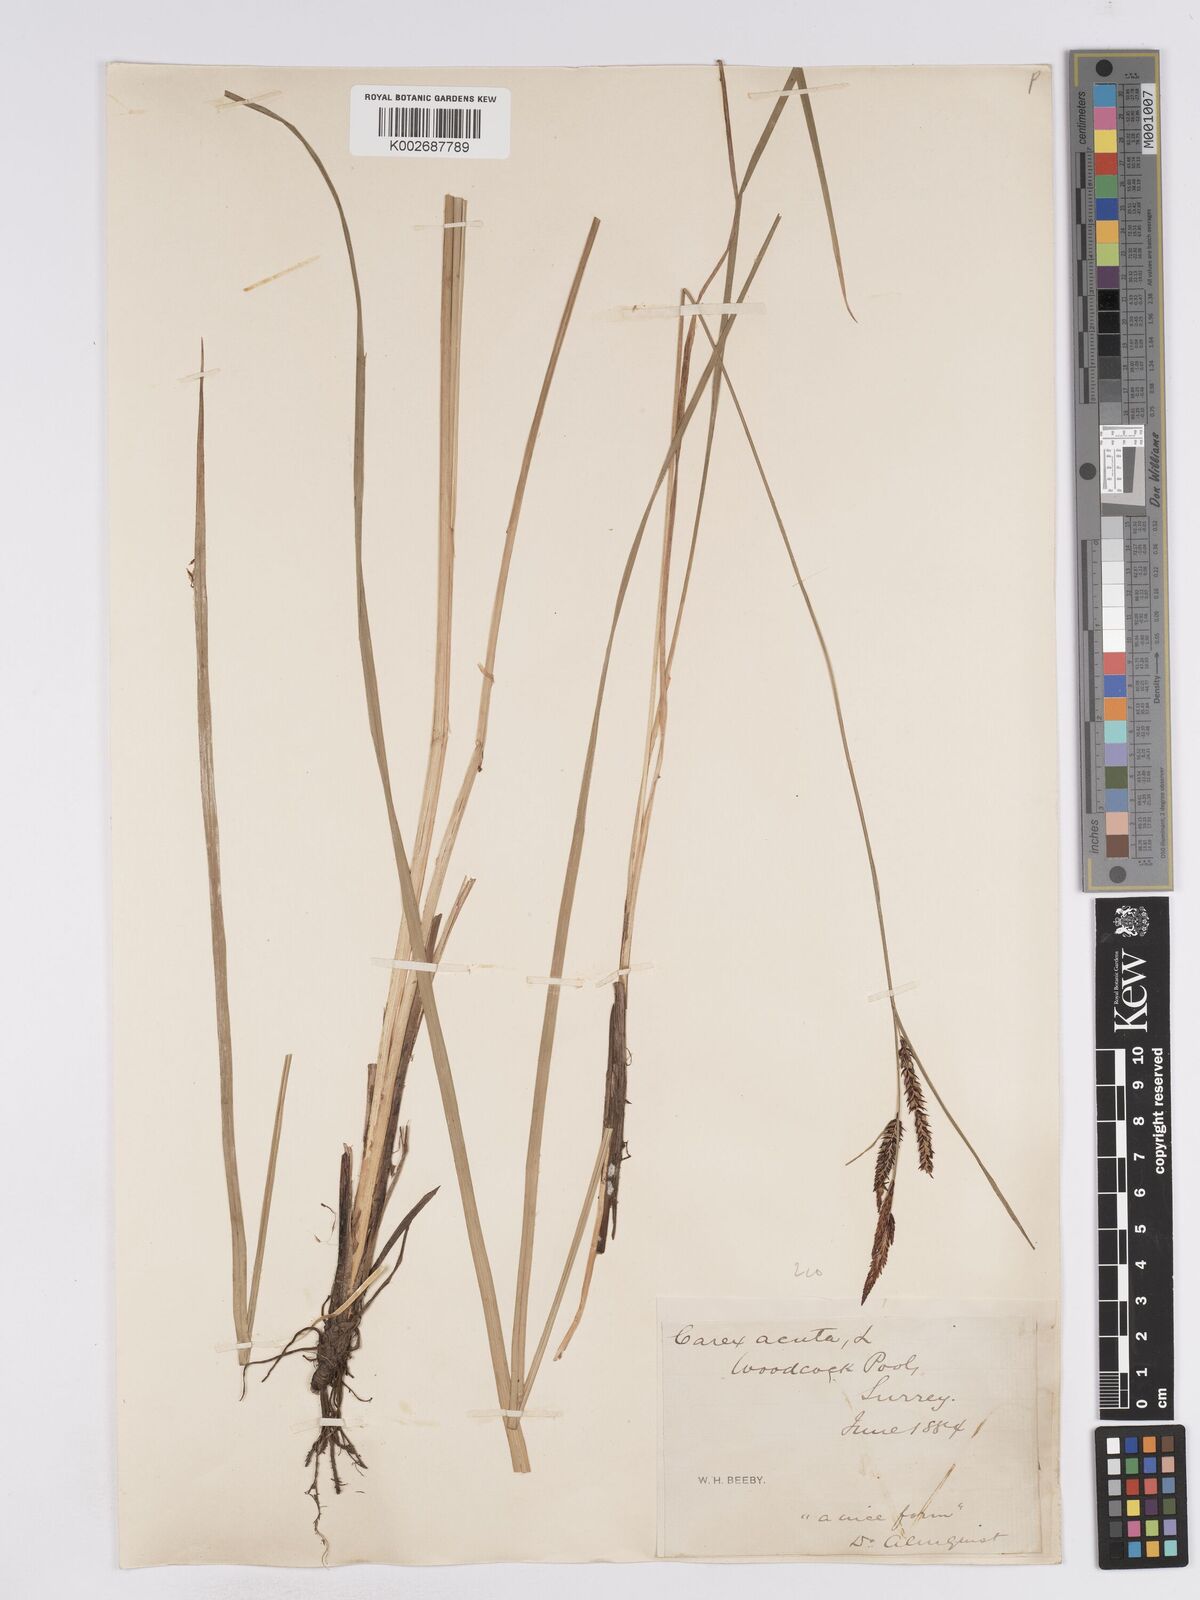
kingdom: Plantae
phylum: Tracheophyta
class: Liliopsida
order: Poales
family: Cyperaceae
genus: Carex
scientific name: Carex acuta
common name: Slender tufted-sedge
